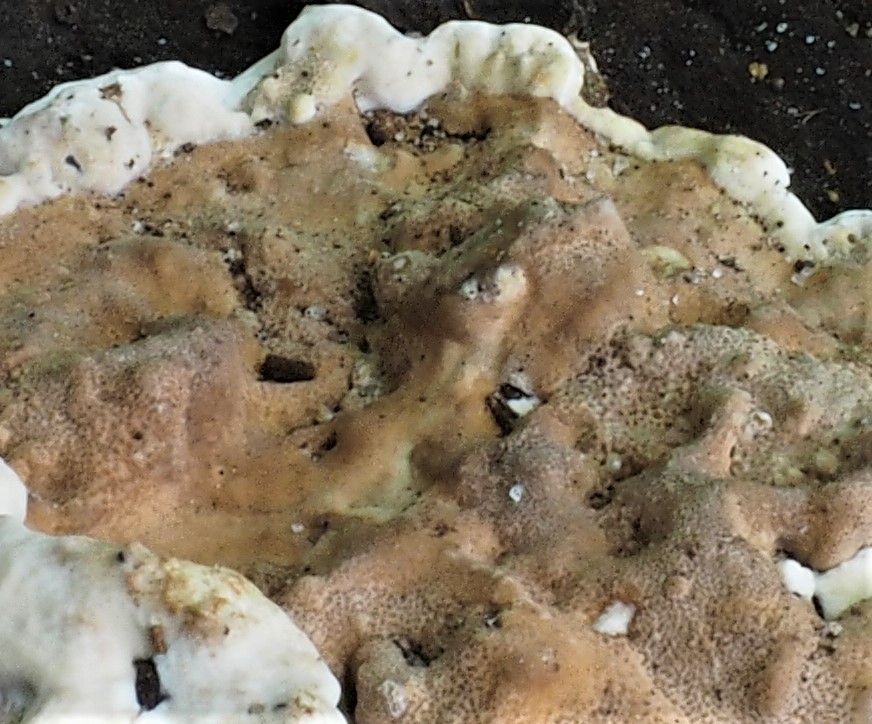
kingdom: Fungi
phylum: Basidiomycota
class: Agaricomycetes
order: Polyporales
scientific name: Polyporales
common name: poresvampordenen
